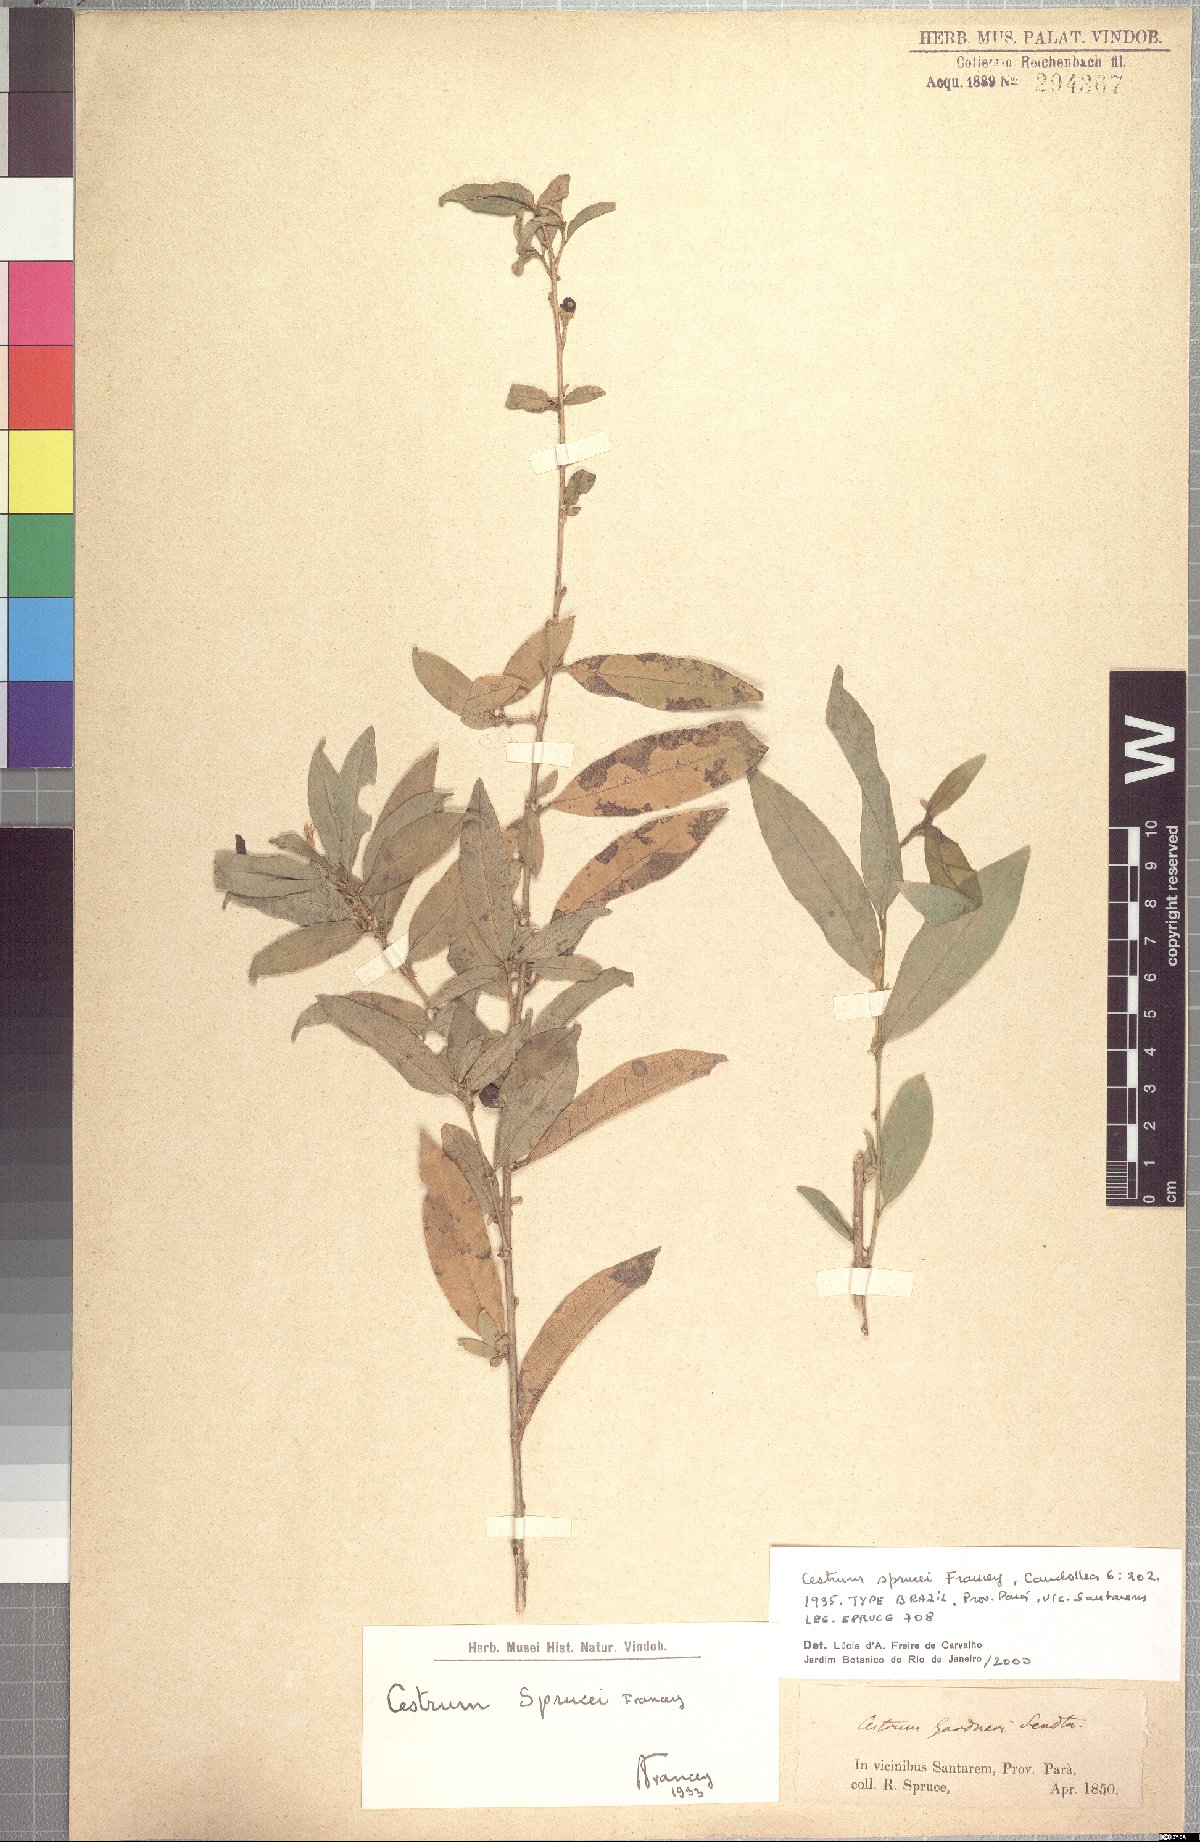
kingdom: Plantae
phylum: Tracheophyta
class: Magnoliopsida
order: Solanales
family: Solanaceae
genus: Cestrum
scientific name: Cestrum schulzianum
